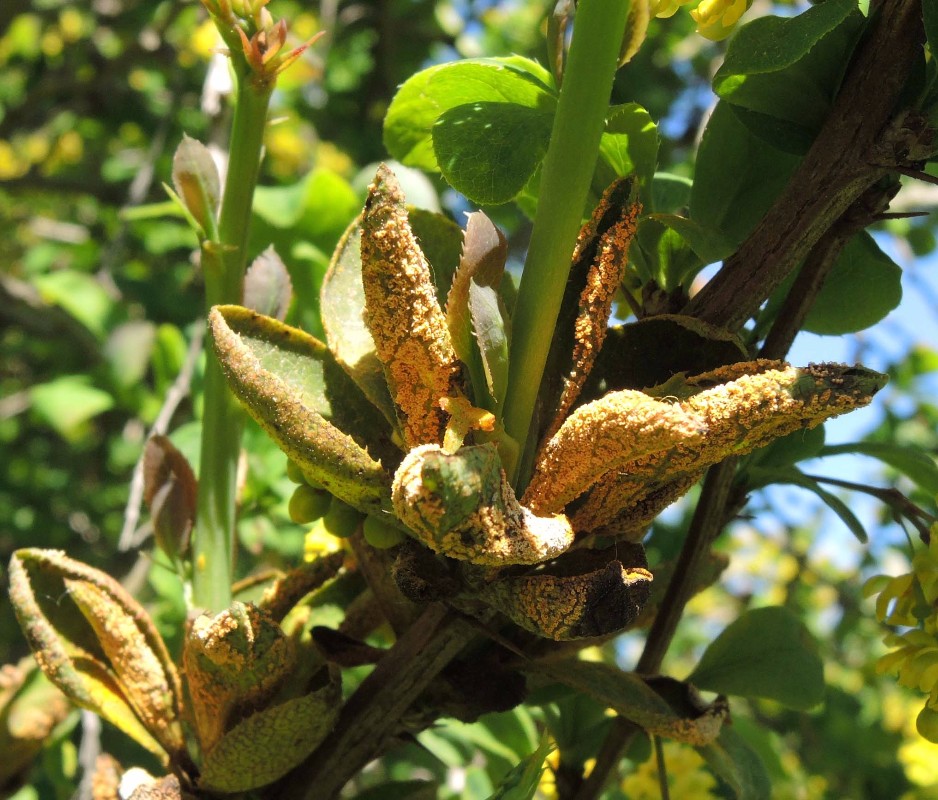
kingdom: Fungi
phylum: Basidiomycota
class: Pucciniomycetes
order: Pucciniales
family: Pucciniaceae
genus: Puccinia
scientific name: Puccinia graminis
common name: græssernes tvecellerust
